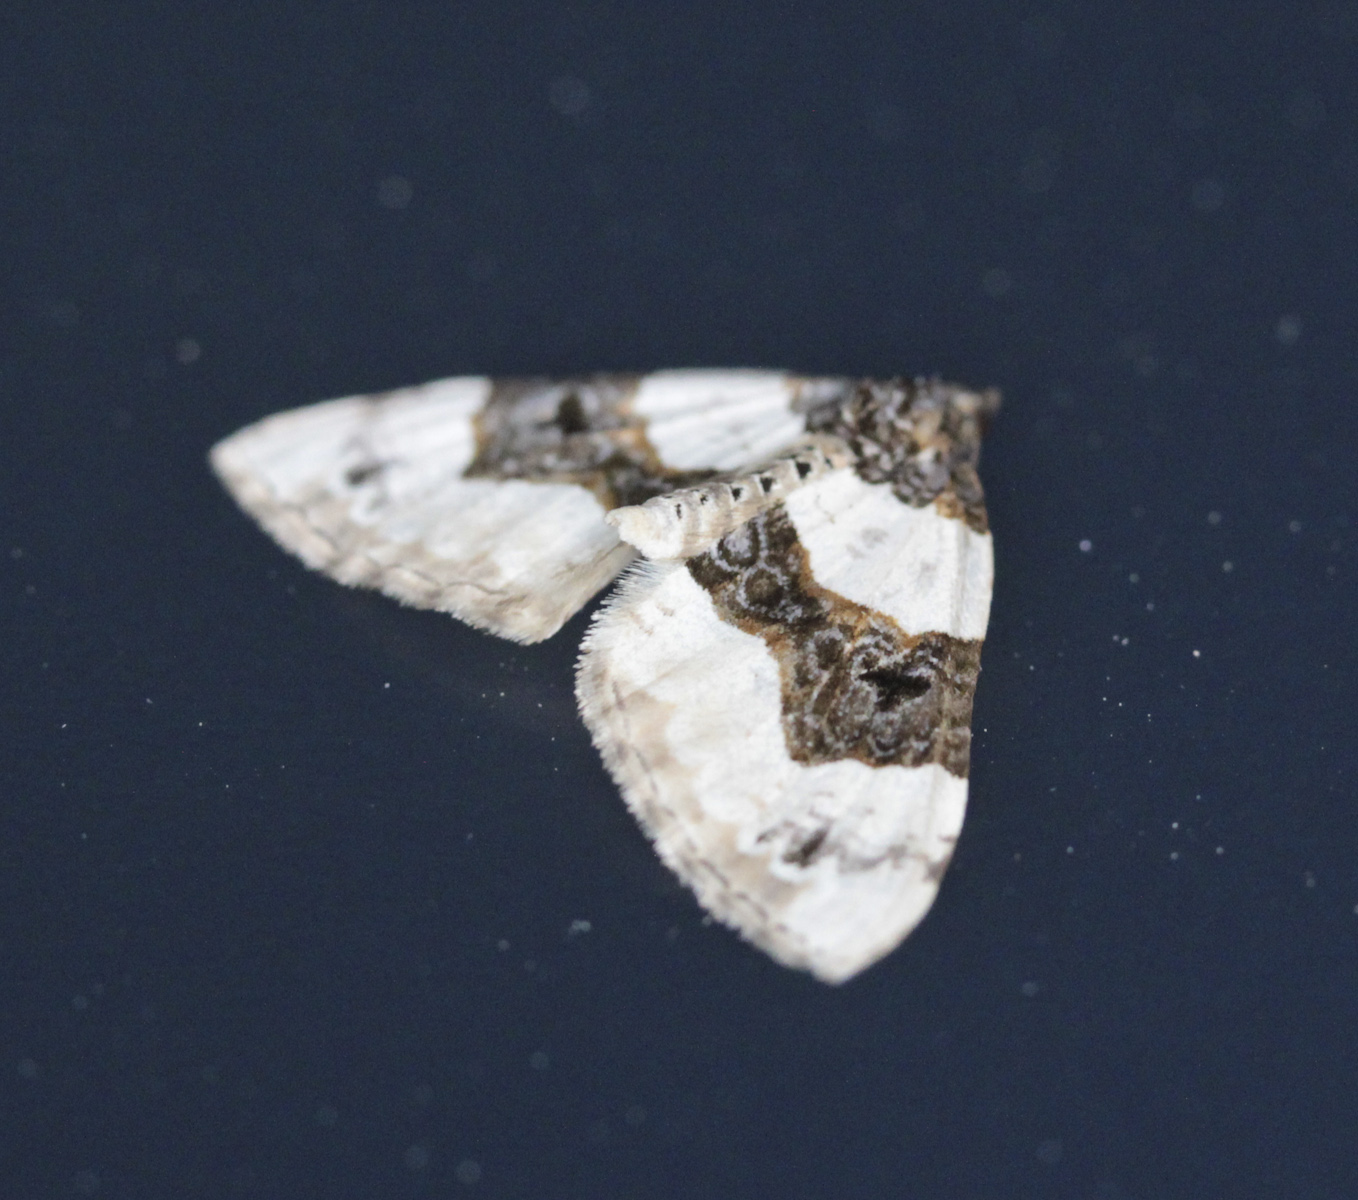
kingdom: Animalia
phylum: Arthropoda
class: Insecta
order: Lepidoptera
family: Geometridae
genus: Cosmorhoe
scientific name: Cosmorhoe ocellata
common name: Purple bar
